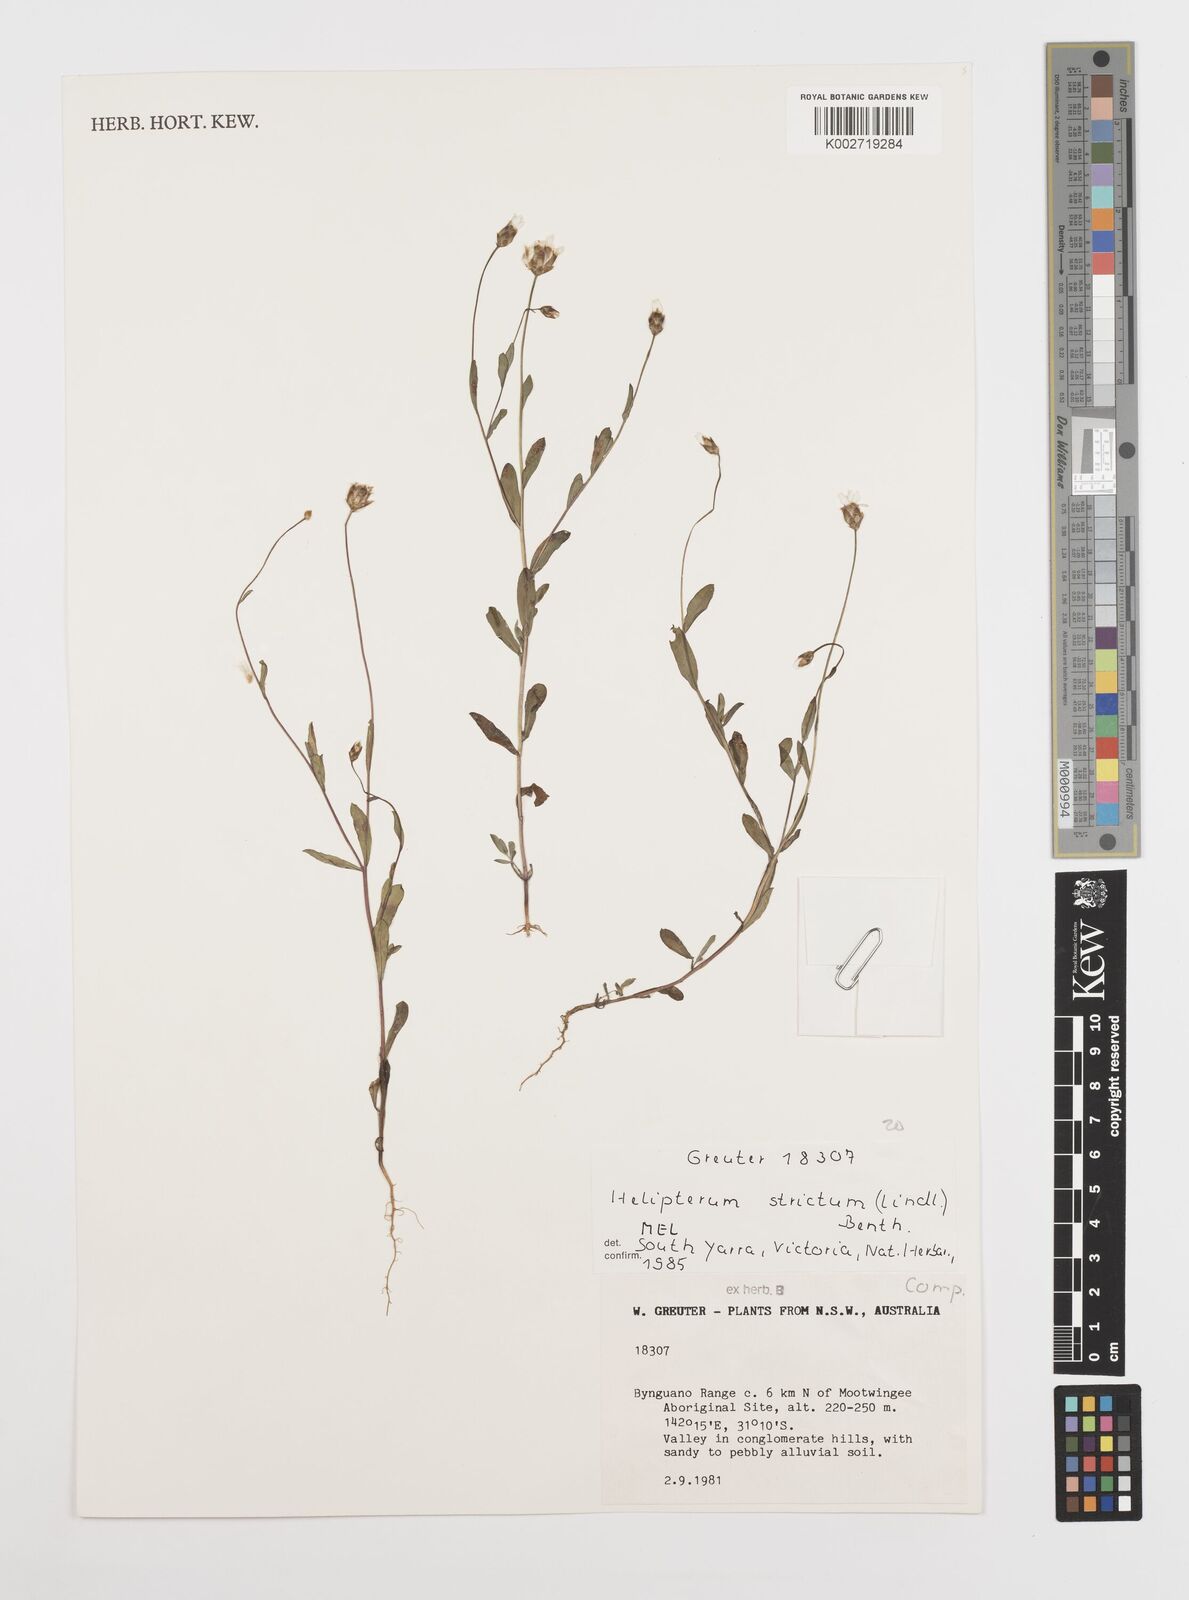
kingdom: Plantae
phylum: Tracheophyta
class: Magnoliopsida
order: Asterales
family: Asteraceae
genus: Rhodanthe
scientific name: Rhodanthe stricta
